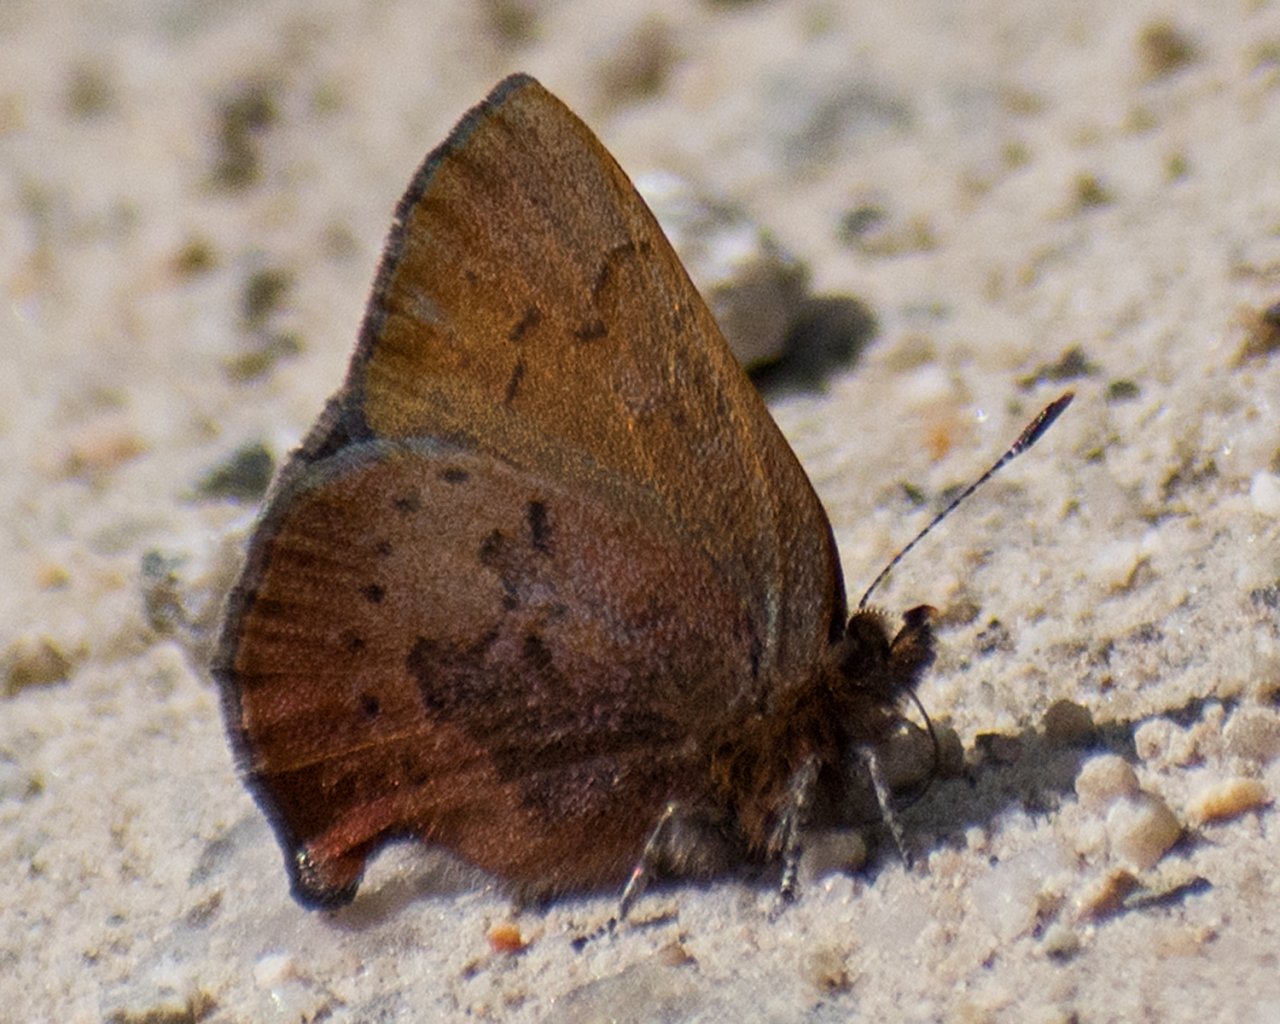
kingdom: Animalia
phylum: Arthropoda
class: Insecta
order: Lepidoptera
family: Lycaenidae
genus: Incisalia
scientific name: Incisalia irioides
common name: Brown Elfin
